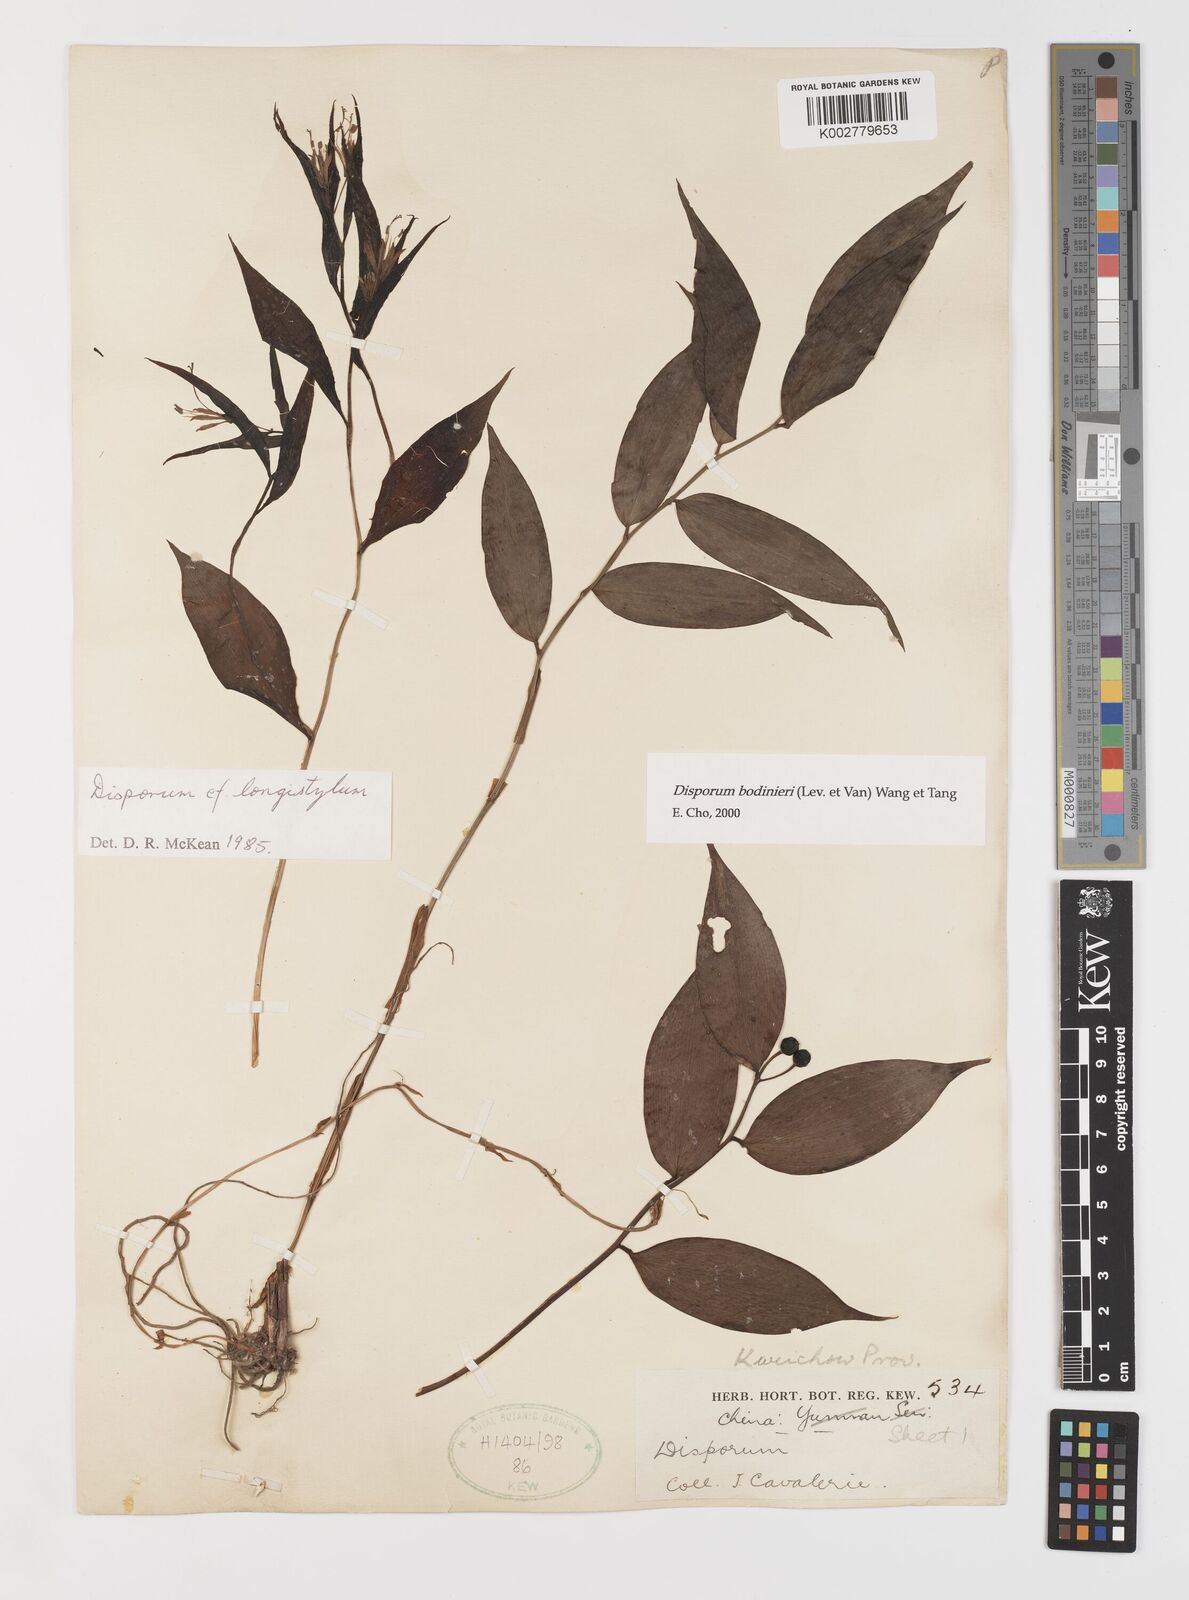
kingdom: Plantae
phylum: Tracheophyta
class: Liliopsida
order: Liliales
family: Colchicaceae
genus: Disporum
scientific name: Disporum bodinieri
